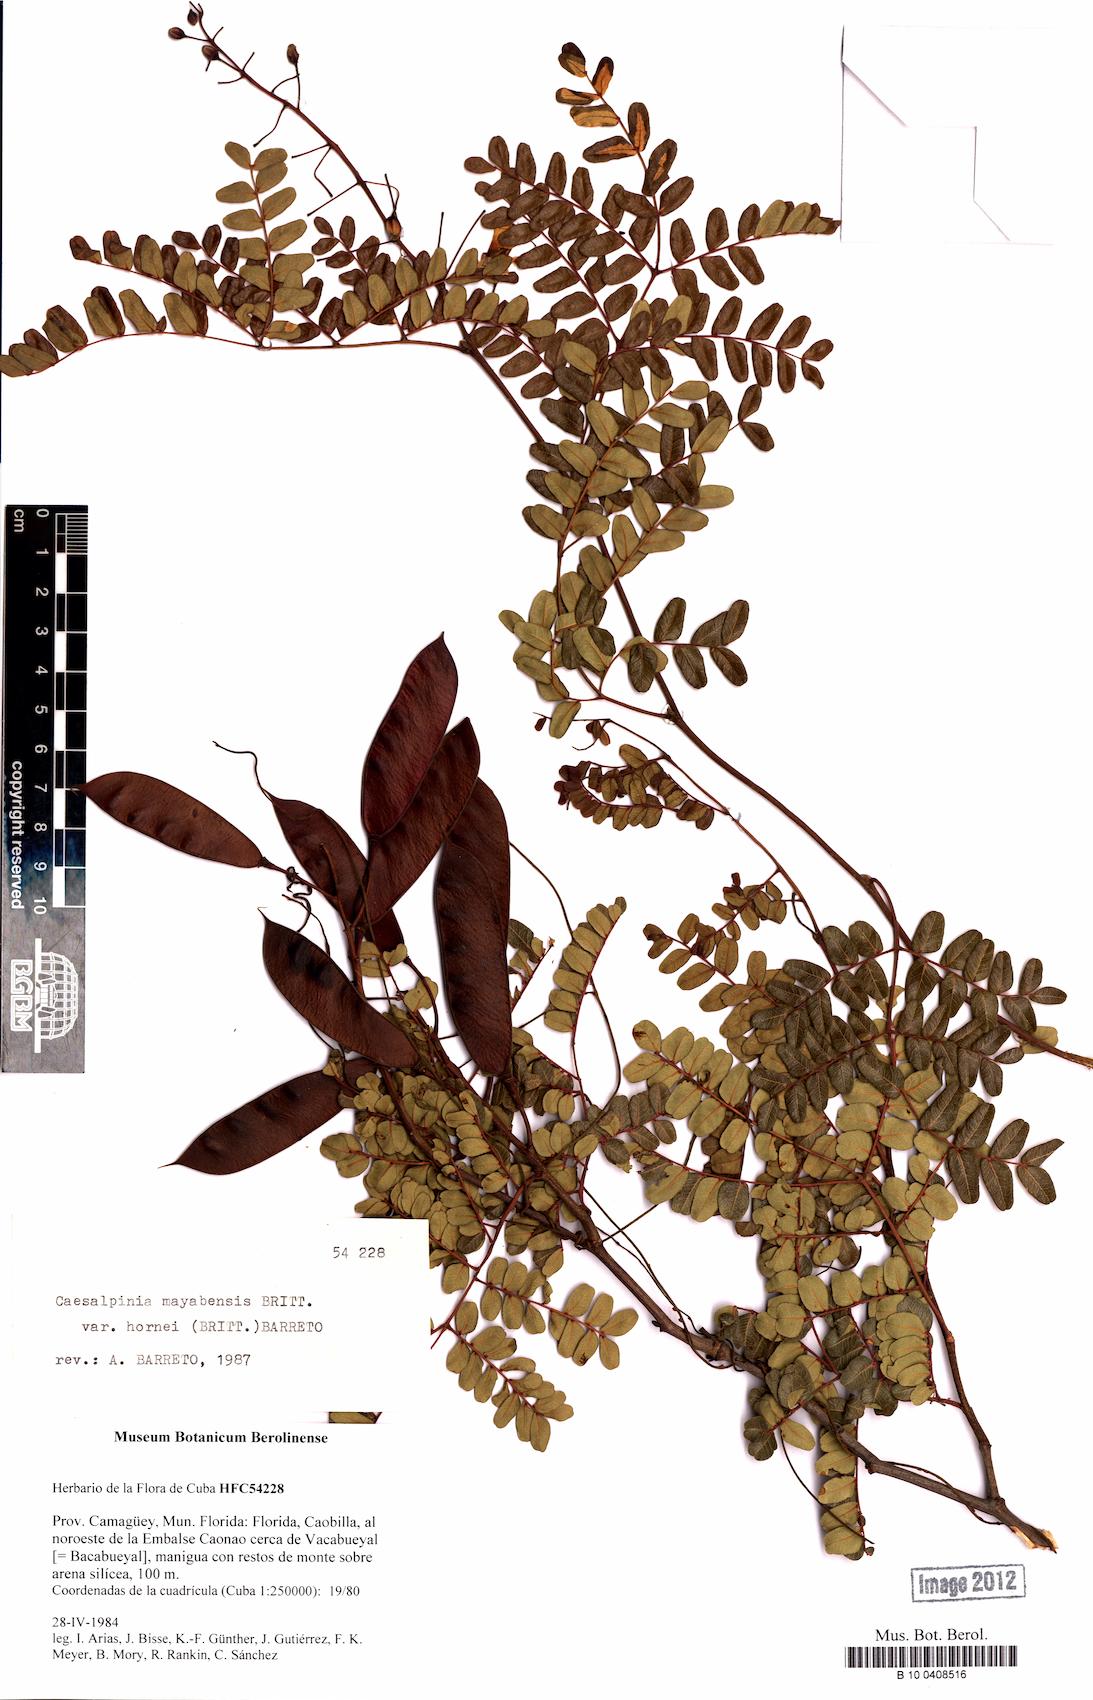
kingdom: Plantae
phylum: Tracheophyta
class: Magnoliopsida
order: Fabales
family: Fabaceae
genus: Caesalpinia
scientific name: Caesalpinia
